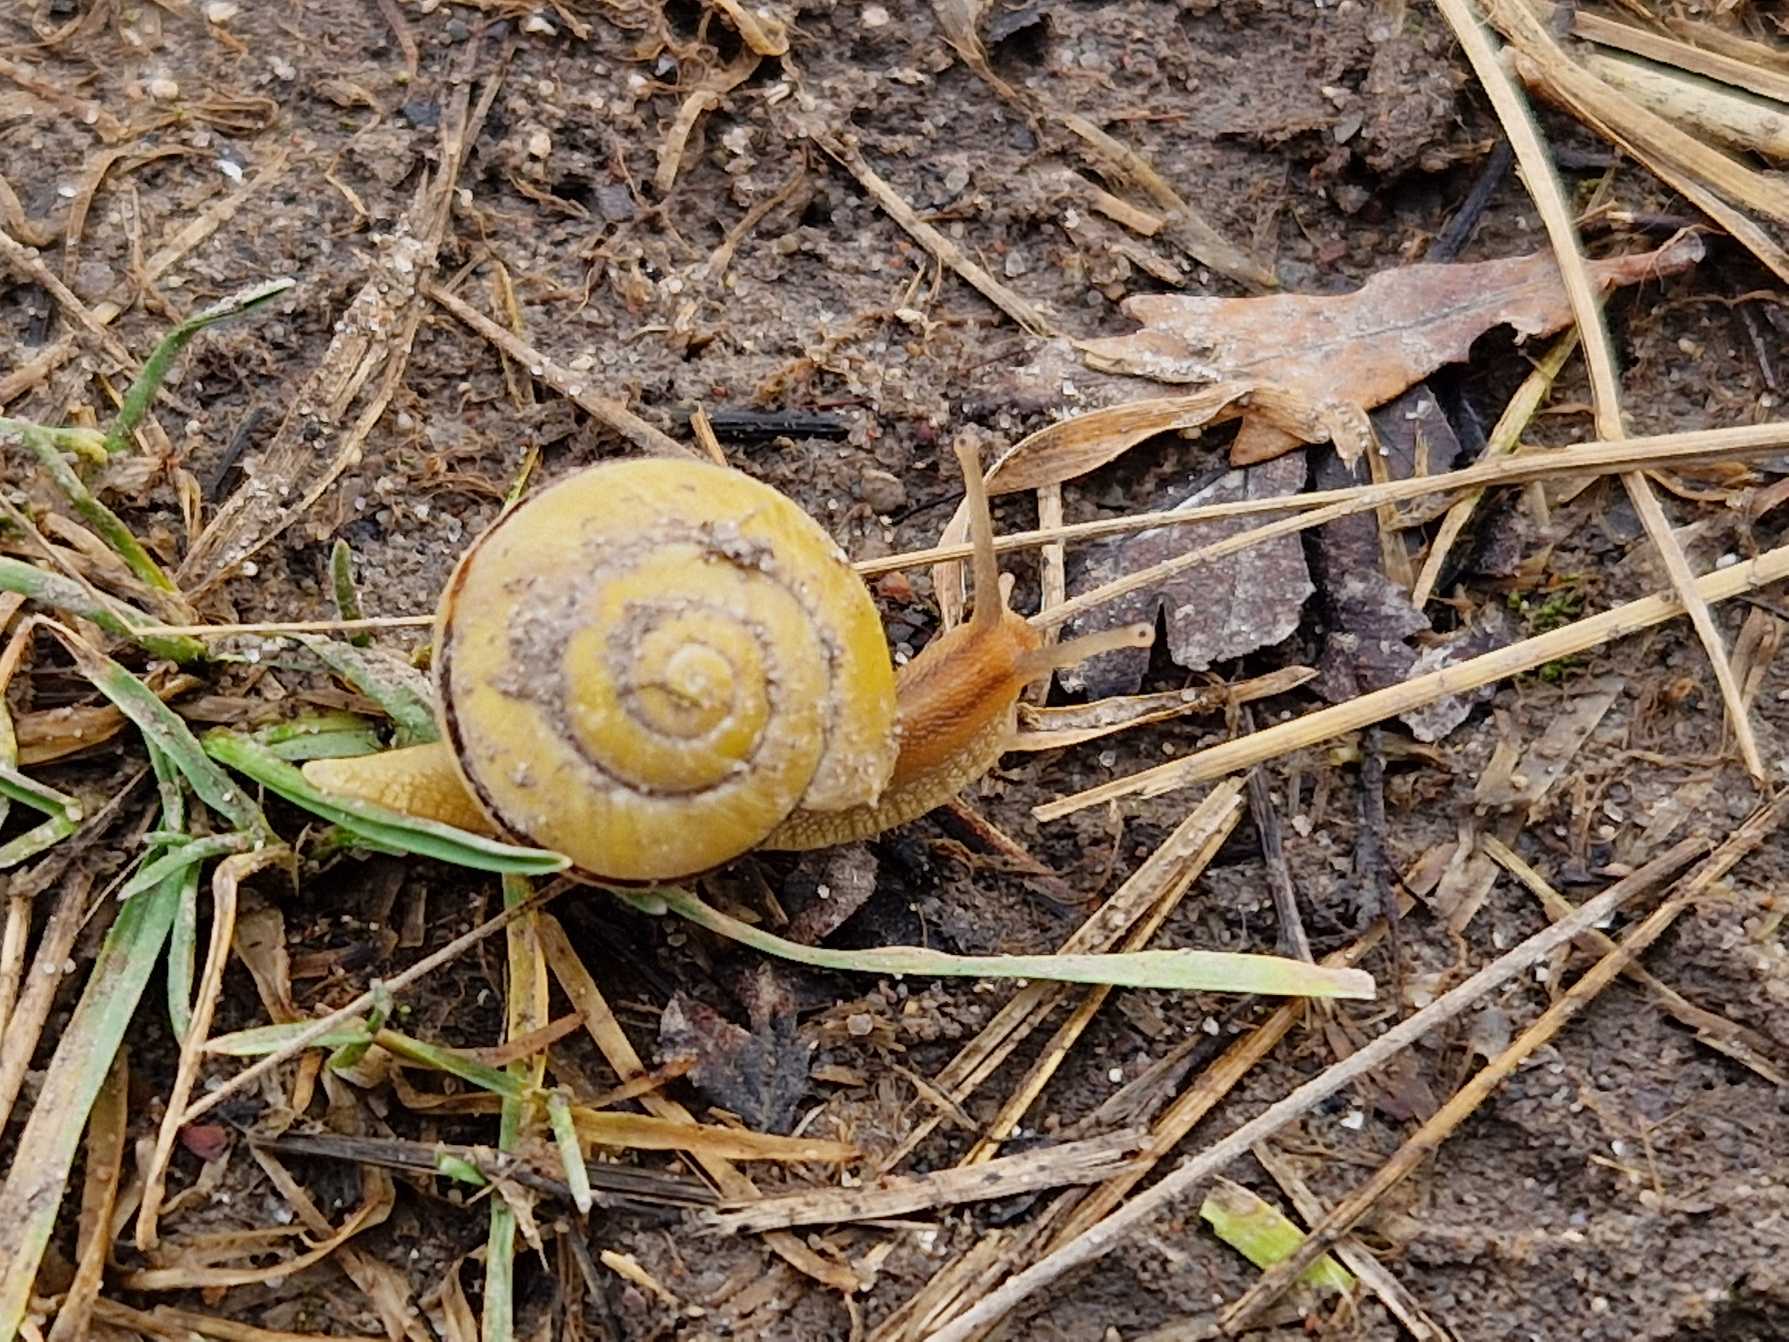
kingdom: Animalia
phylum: Mollusca
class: Gastropoda
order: Stylommatophora
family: Helicidae
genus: Cepaea
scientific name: Cepaea hortensis
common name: Havesnegl
